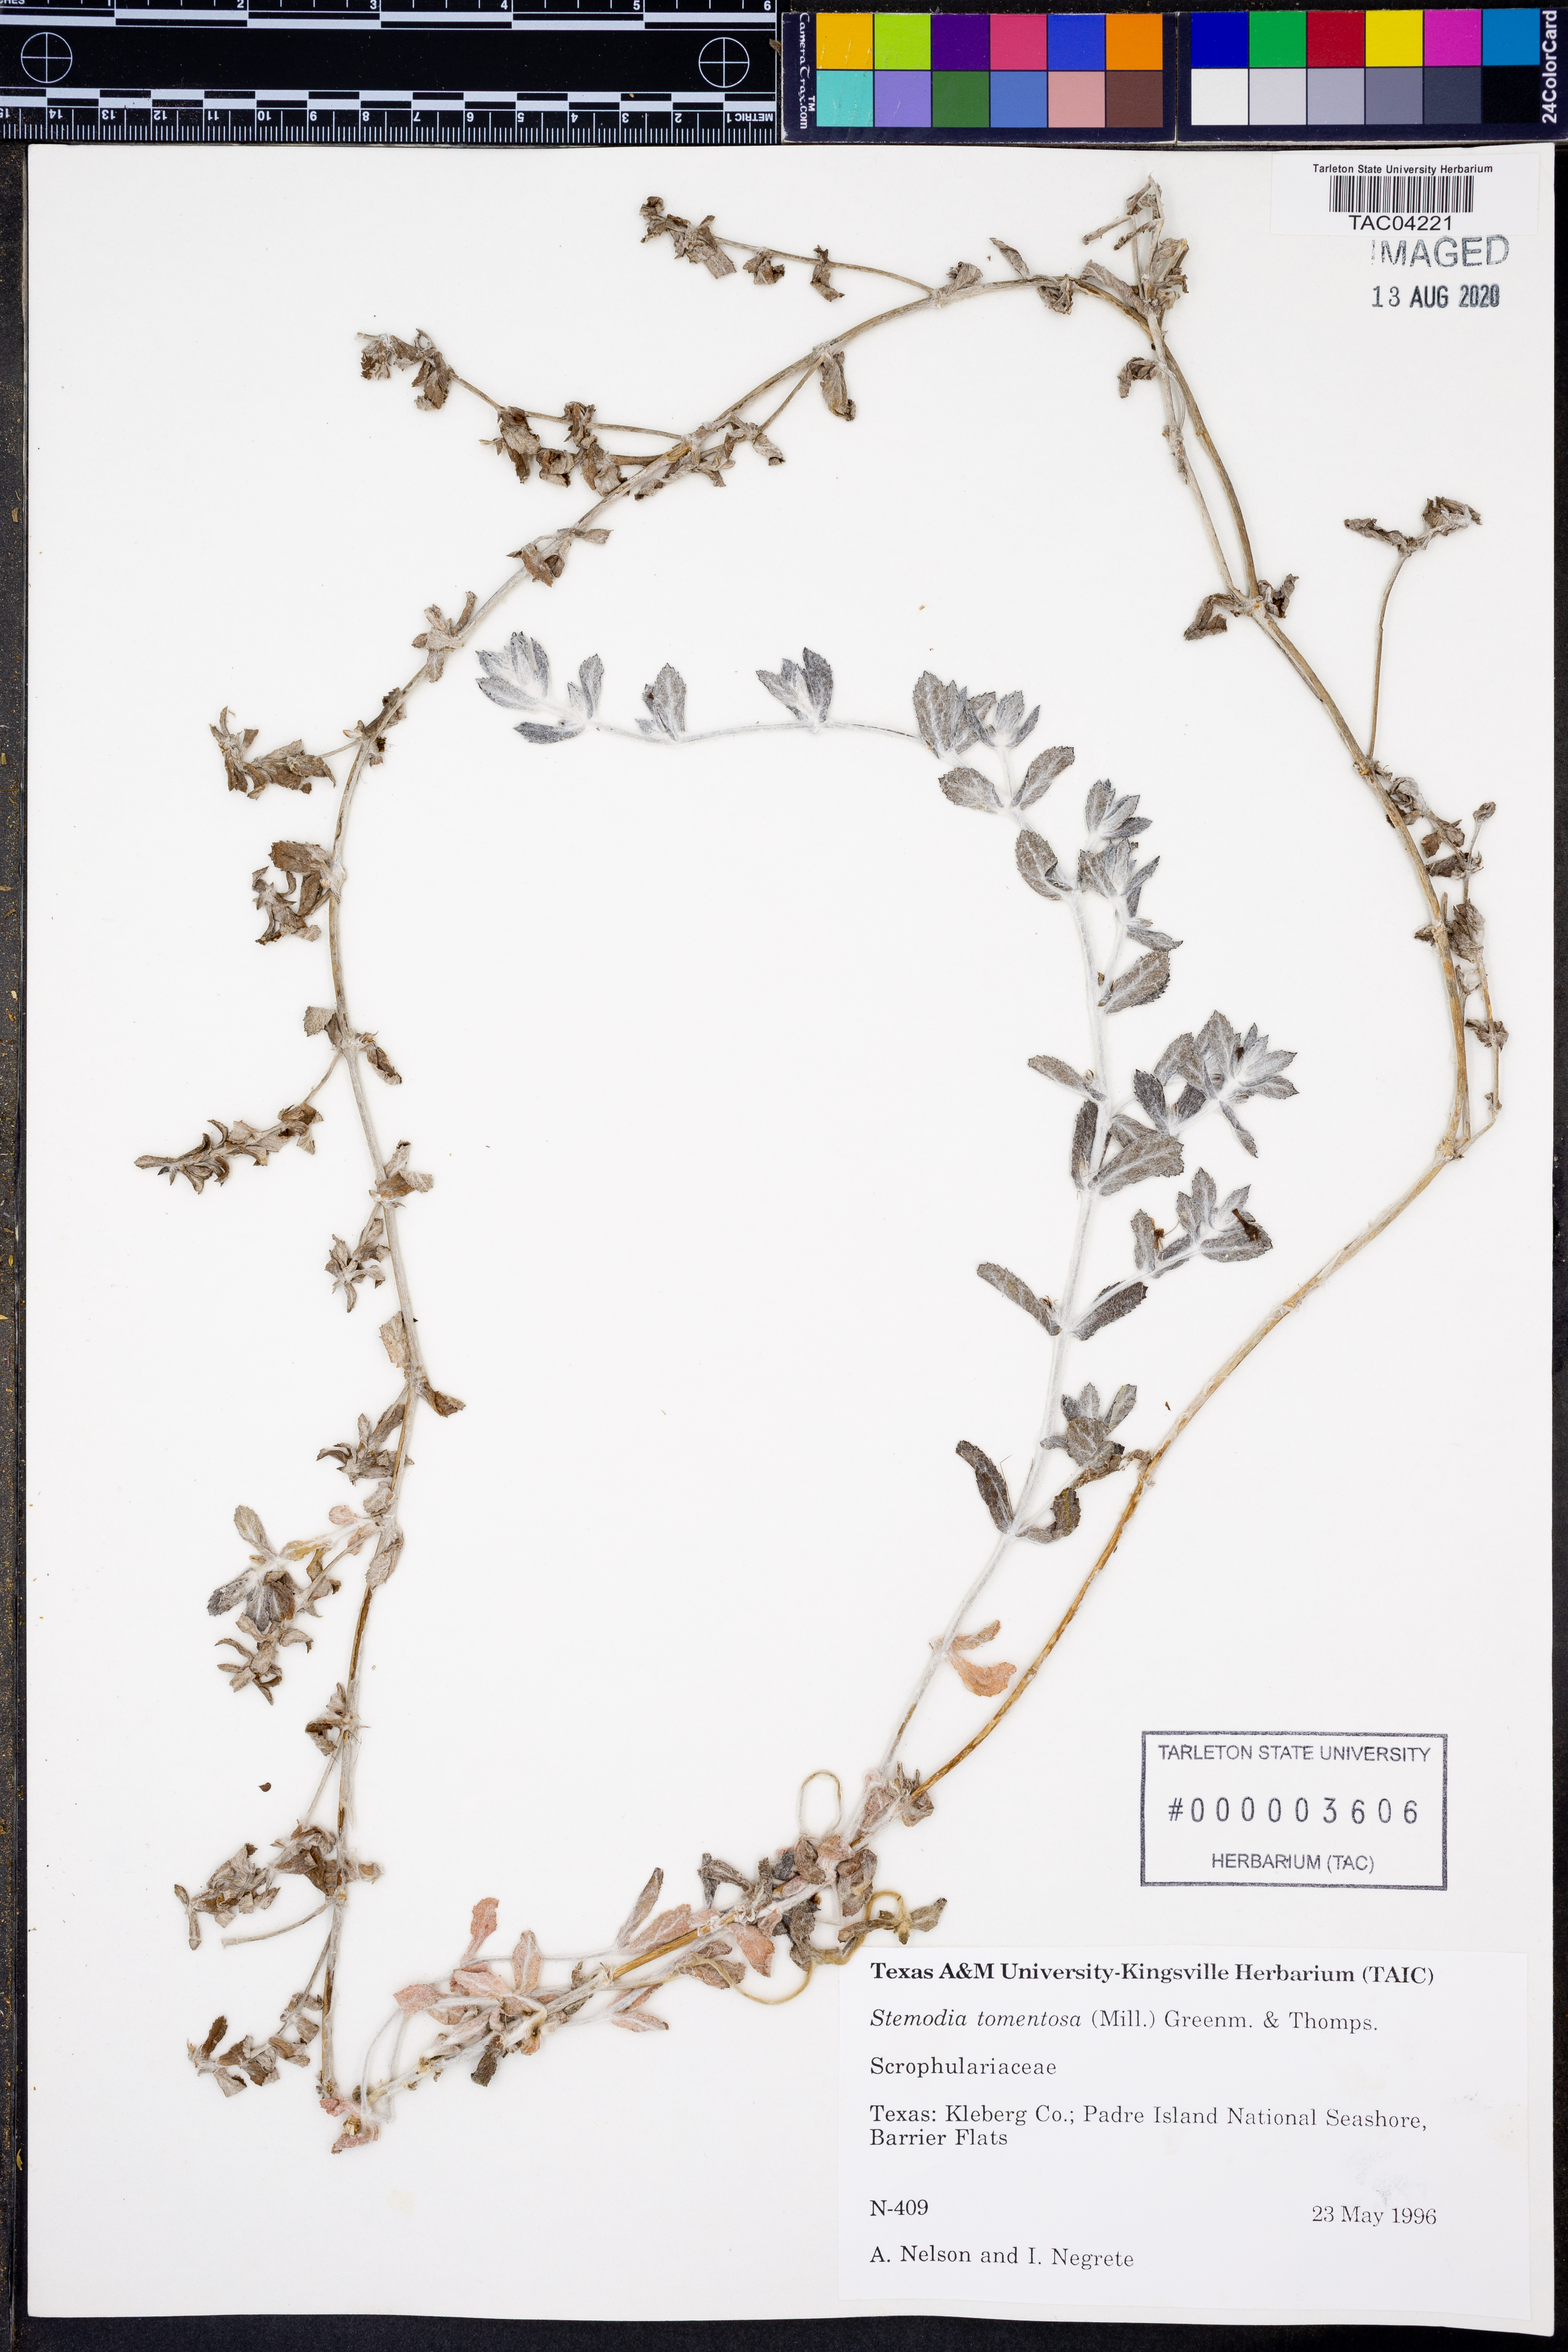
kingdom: Plantae
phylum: Tracheophyta
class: Magnoliopsida
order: Lamiales
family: Plantaginaceae
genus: Stemodia
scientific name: Stemodia lanata
